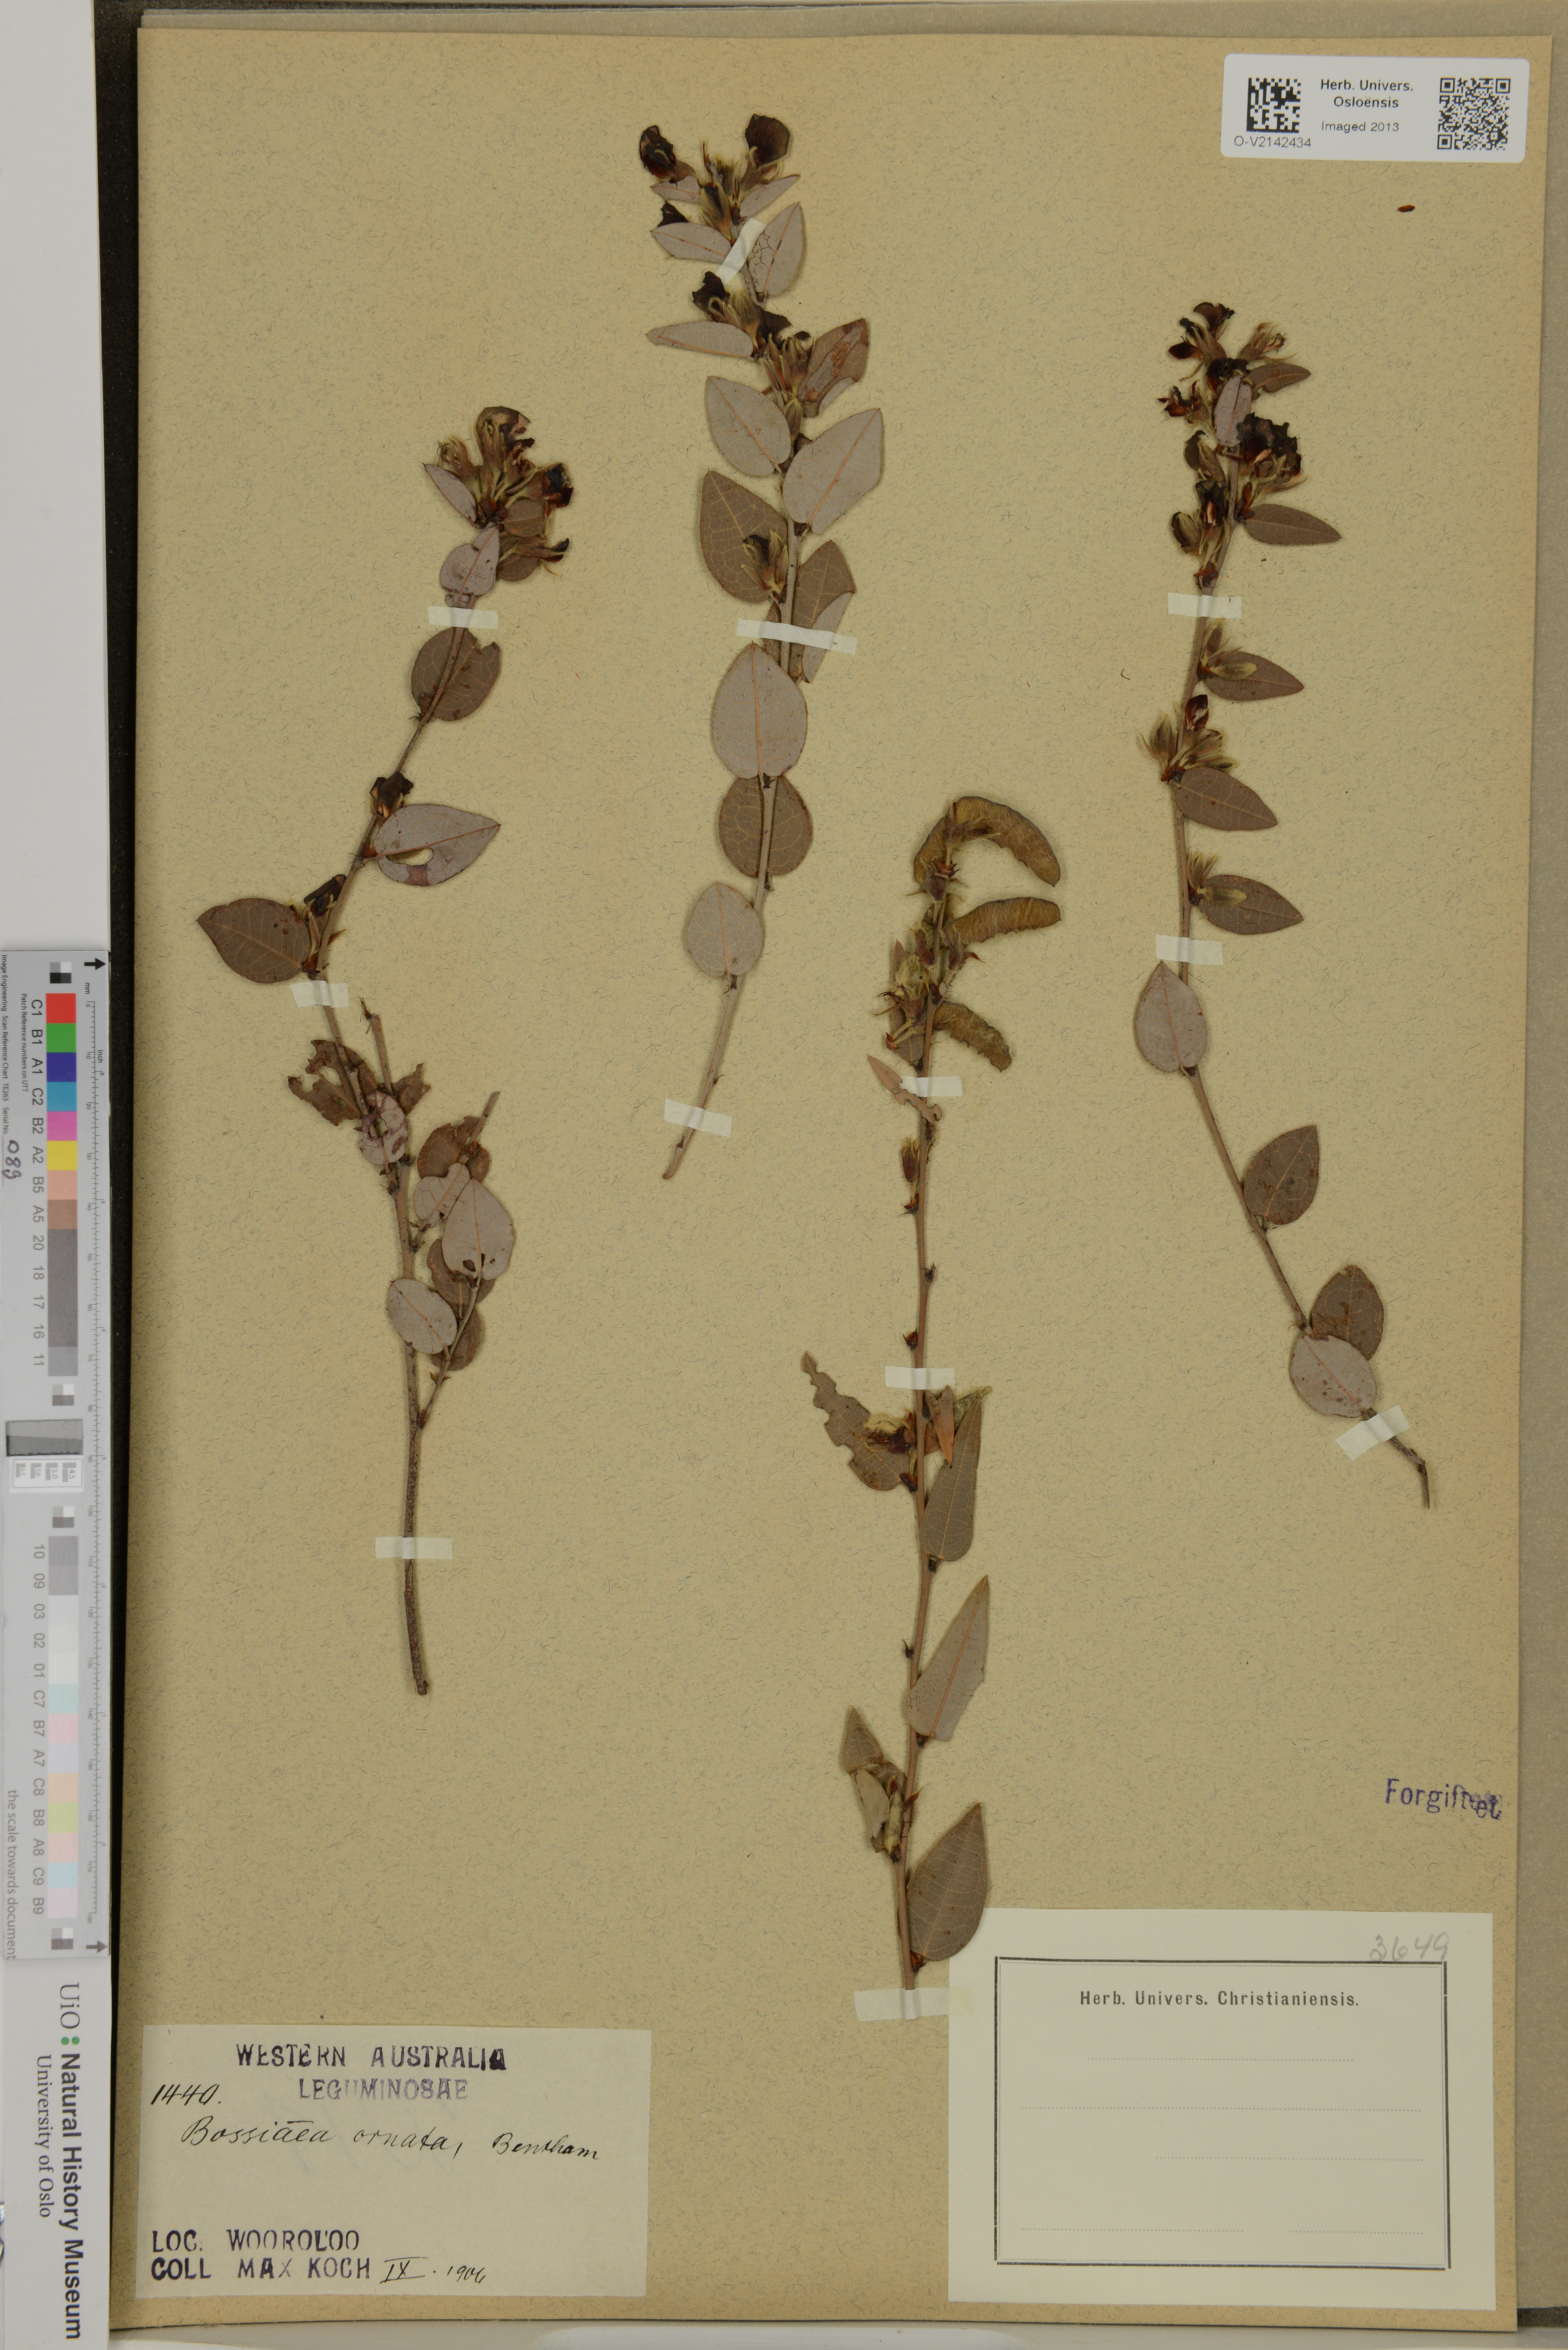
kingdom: Plantae
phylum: Tracheophyta
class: Magnoliopsida
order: Fabales
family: Fabaceae
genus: Bossiaea
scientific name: Bossiaea ornata
